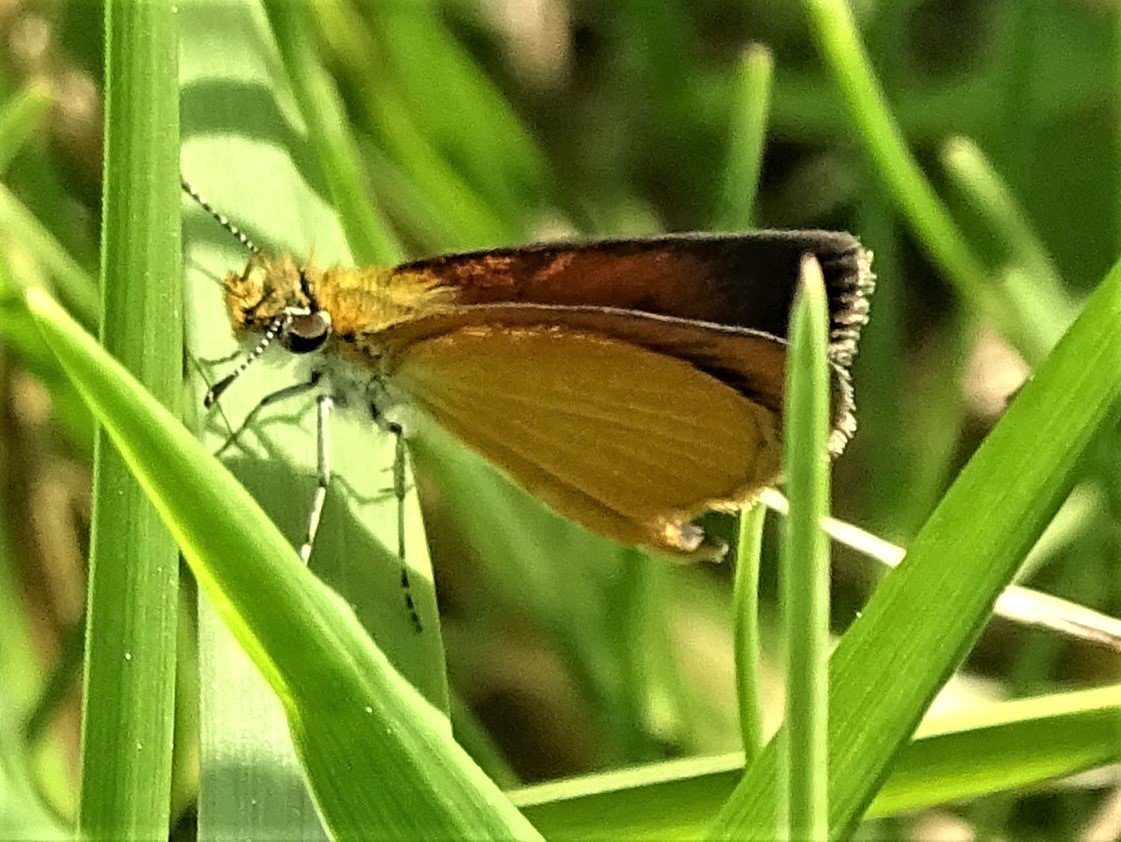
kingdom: Animalia
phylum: Arthropoda
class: Insecta
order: Lepidoptera
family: Hesperiidae
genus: Ancyloxypha
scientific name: Ancyloxypha numitor
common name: Least Skipper
